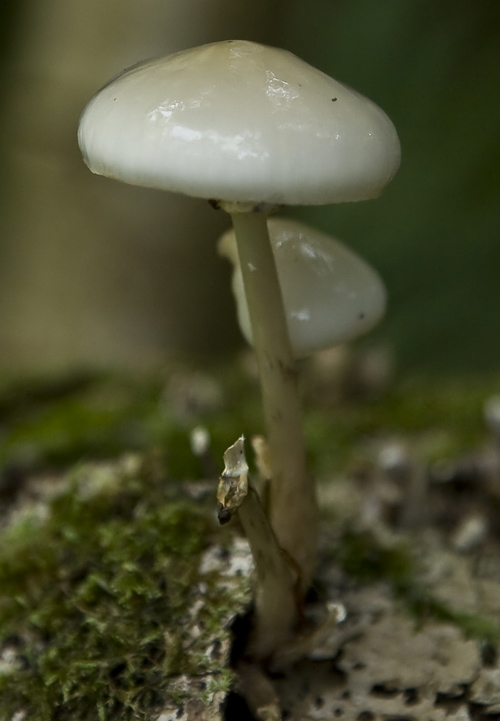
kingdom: Fungi
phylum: Basidiomycota
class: Agaricomycetes
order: Agaricales
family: Physalacriaceae
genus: Mucidula
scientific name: Mucidula mucida
